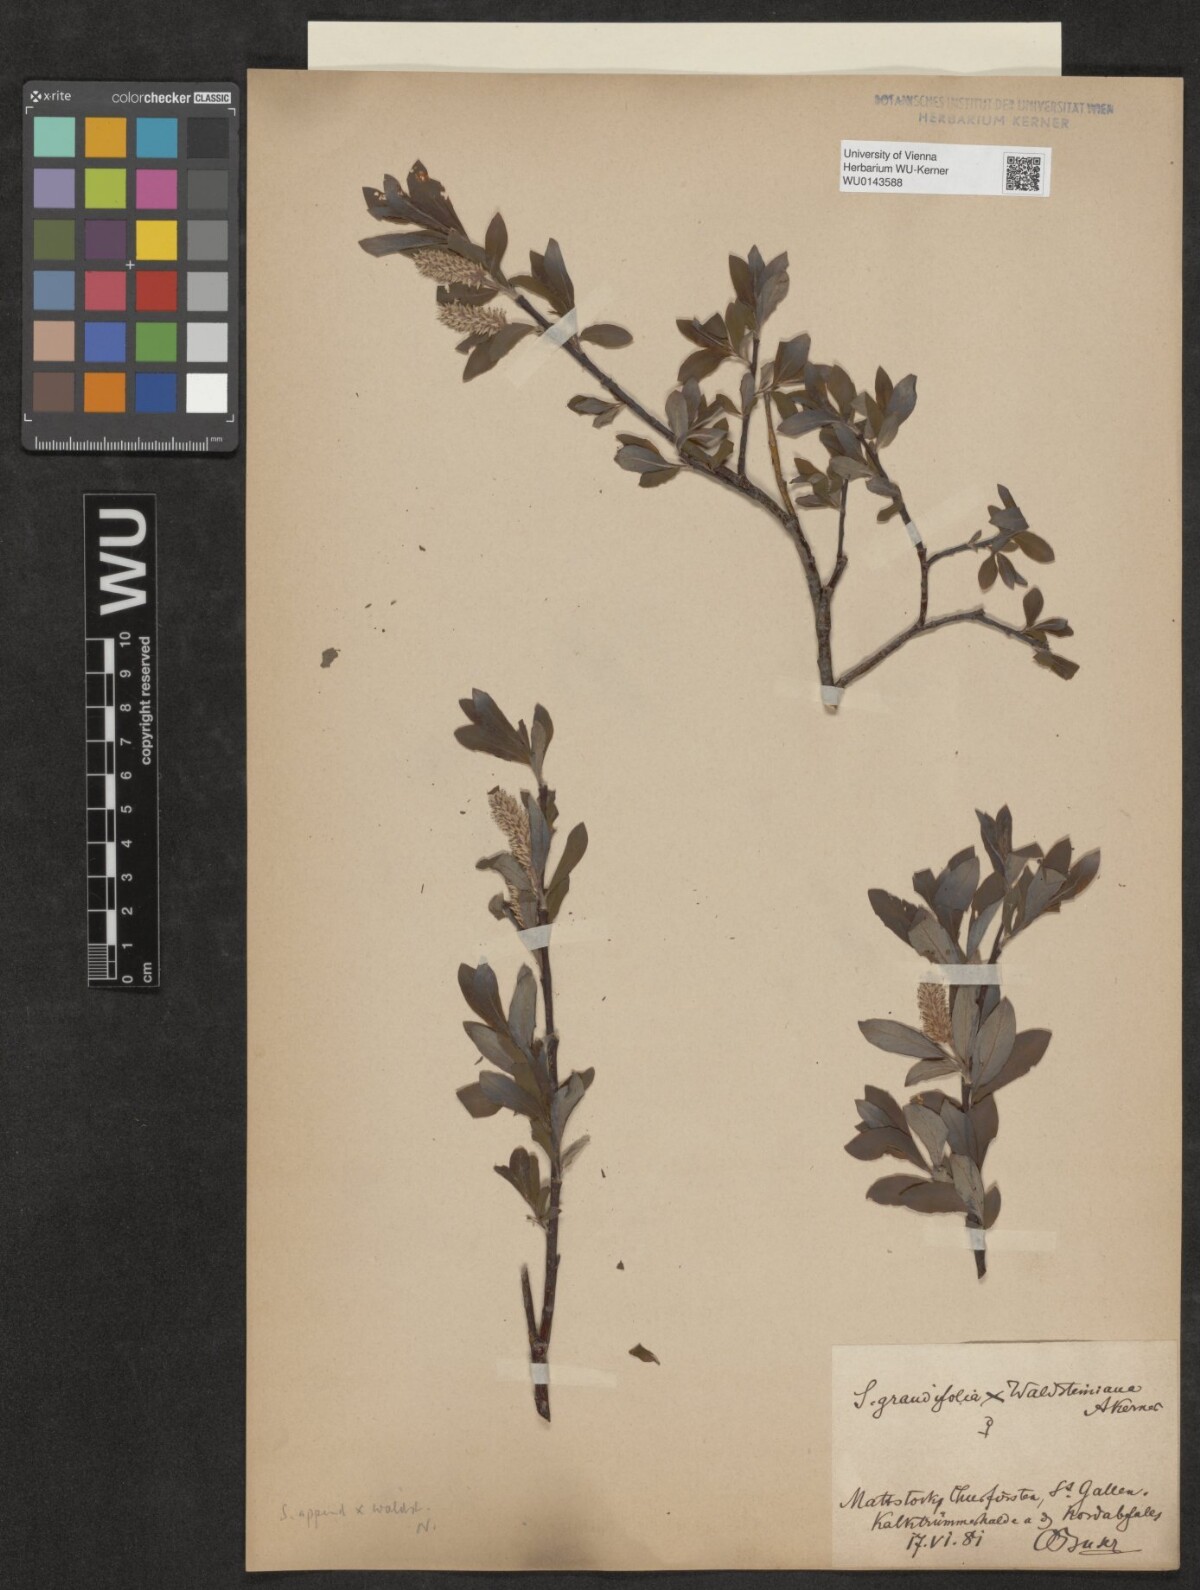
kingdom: Plantae
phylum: Tracheophyta
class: Magnoliopsida
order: Malpighiales
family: Salicaceae
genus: Salix
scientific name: Salix waldsteiniana
